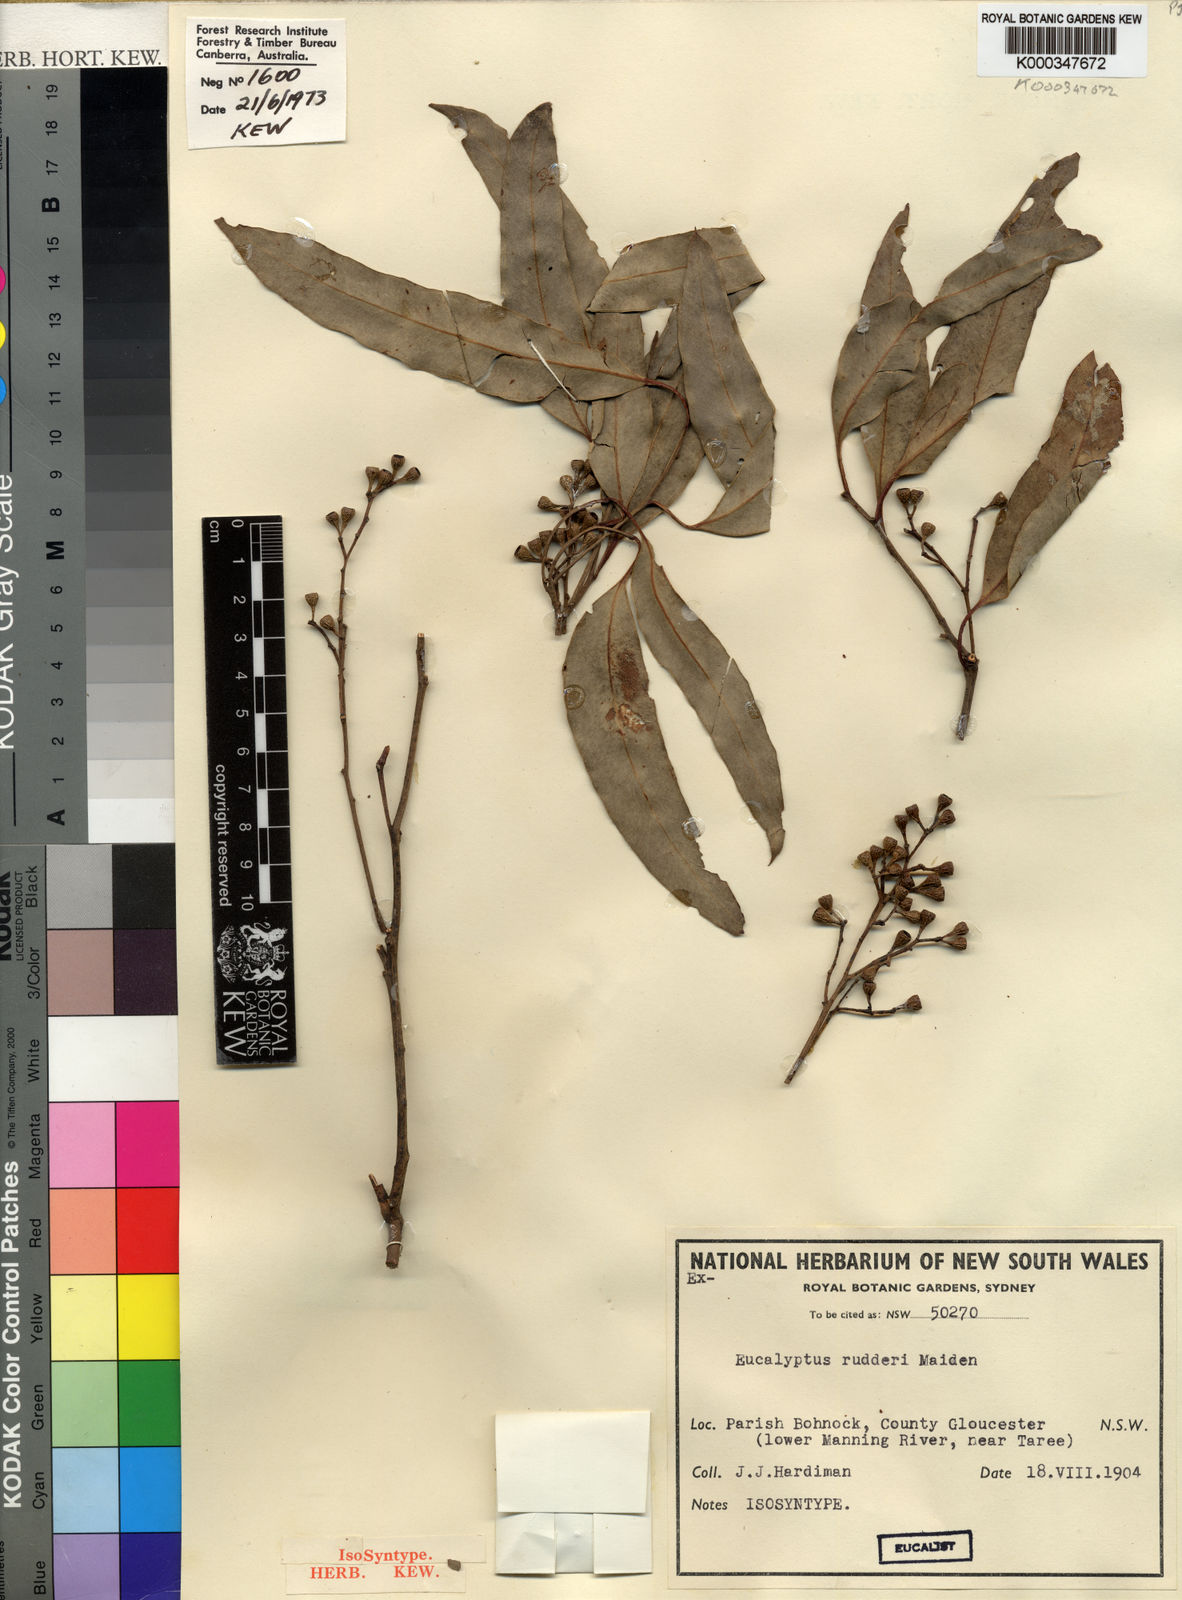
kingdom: Plantae
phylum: Tracheophyta
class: Magnoliopsida
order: Myrtales
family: Myrtaceae
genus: Eucalyptus
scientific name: Eucalyptus rudderi
